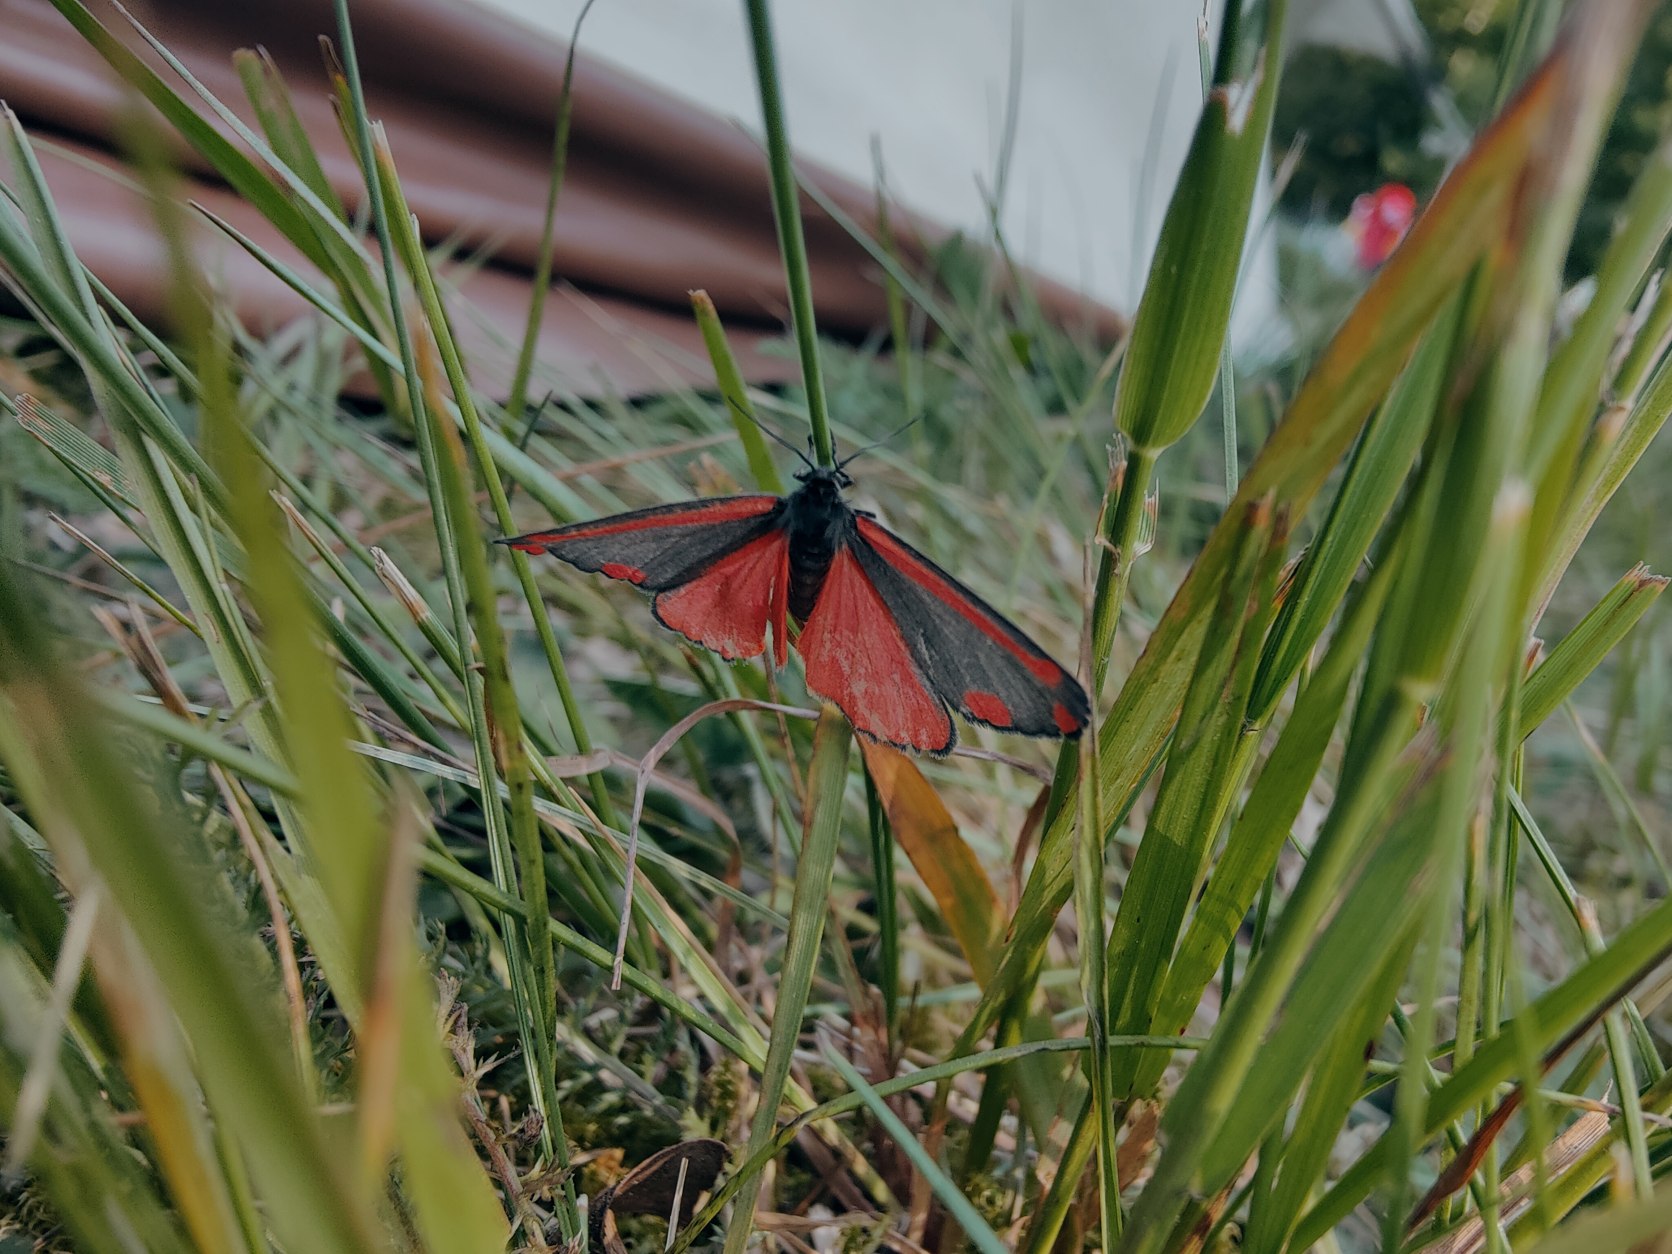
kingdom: Animalia
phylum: Arthropoda
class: Insecta
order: Lepidoptera
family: Erebidae
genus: Tyria
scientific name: Tyria jacobaeae
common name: Blodplet
